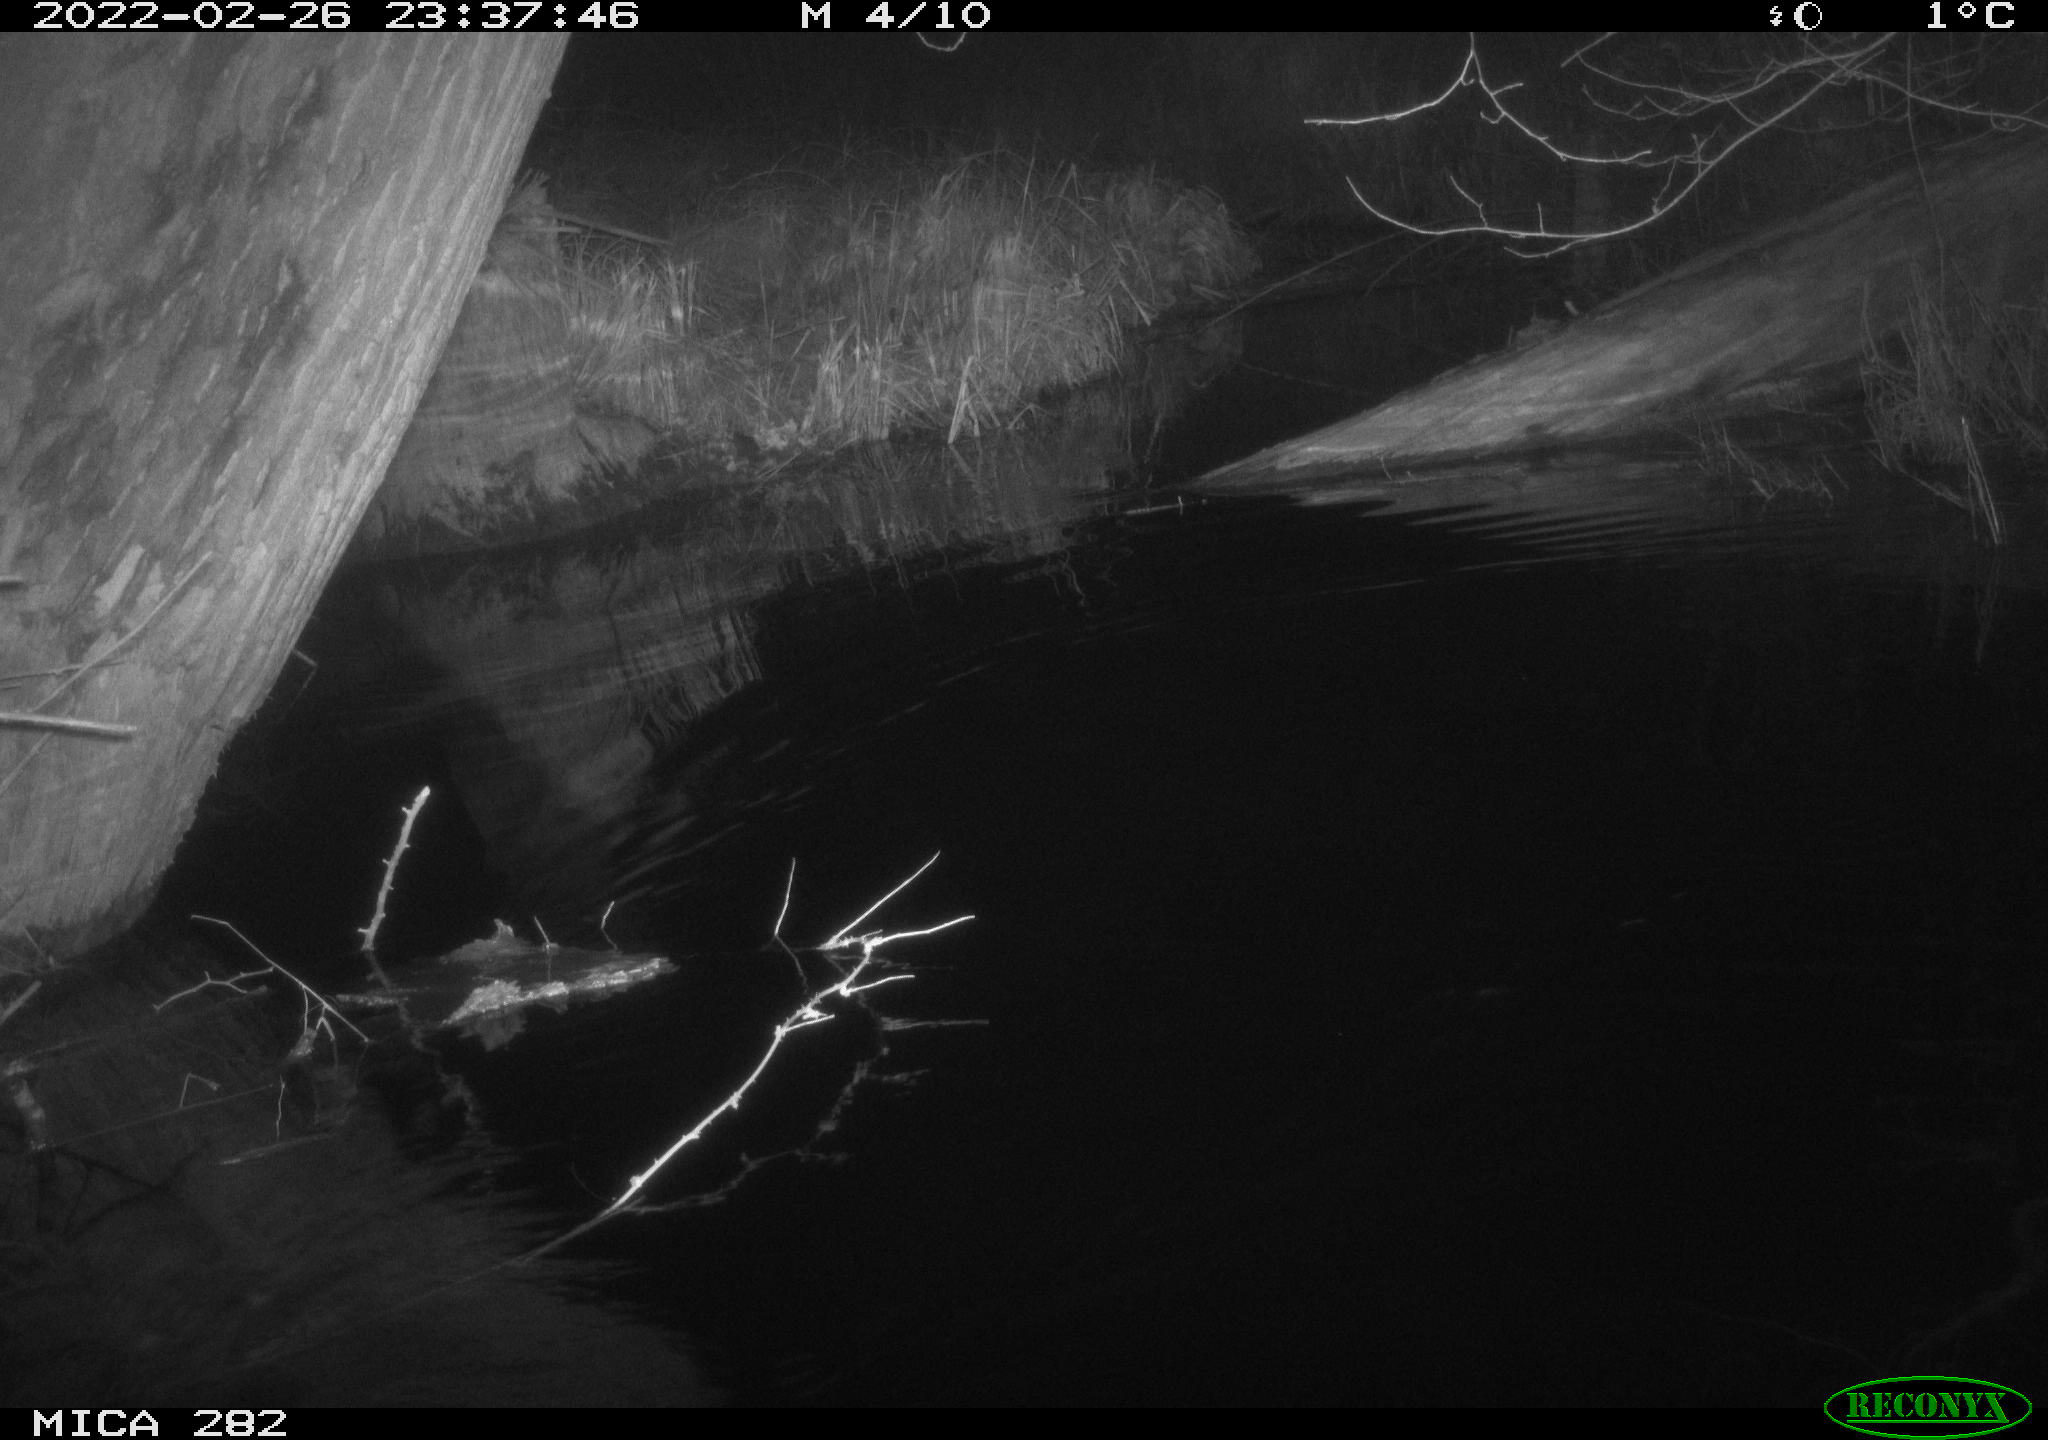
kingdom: Animalia
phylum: Chordata
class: Mammalia
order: Rodentia
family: Muridae
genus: Rattus
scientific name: Rattus norvegicus
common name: Brown rat
